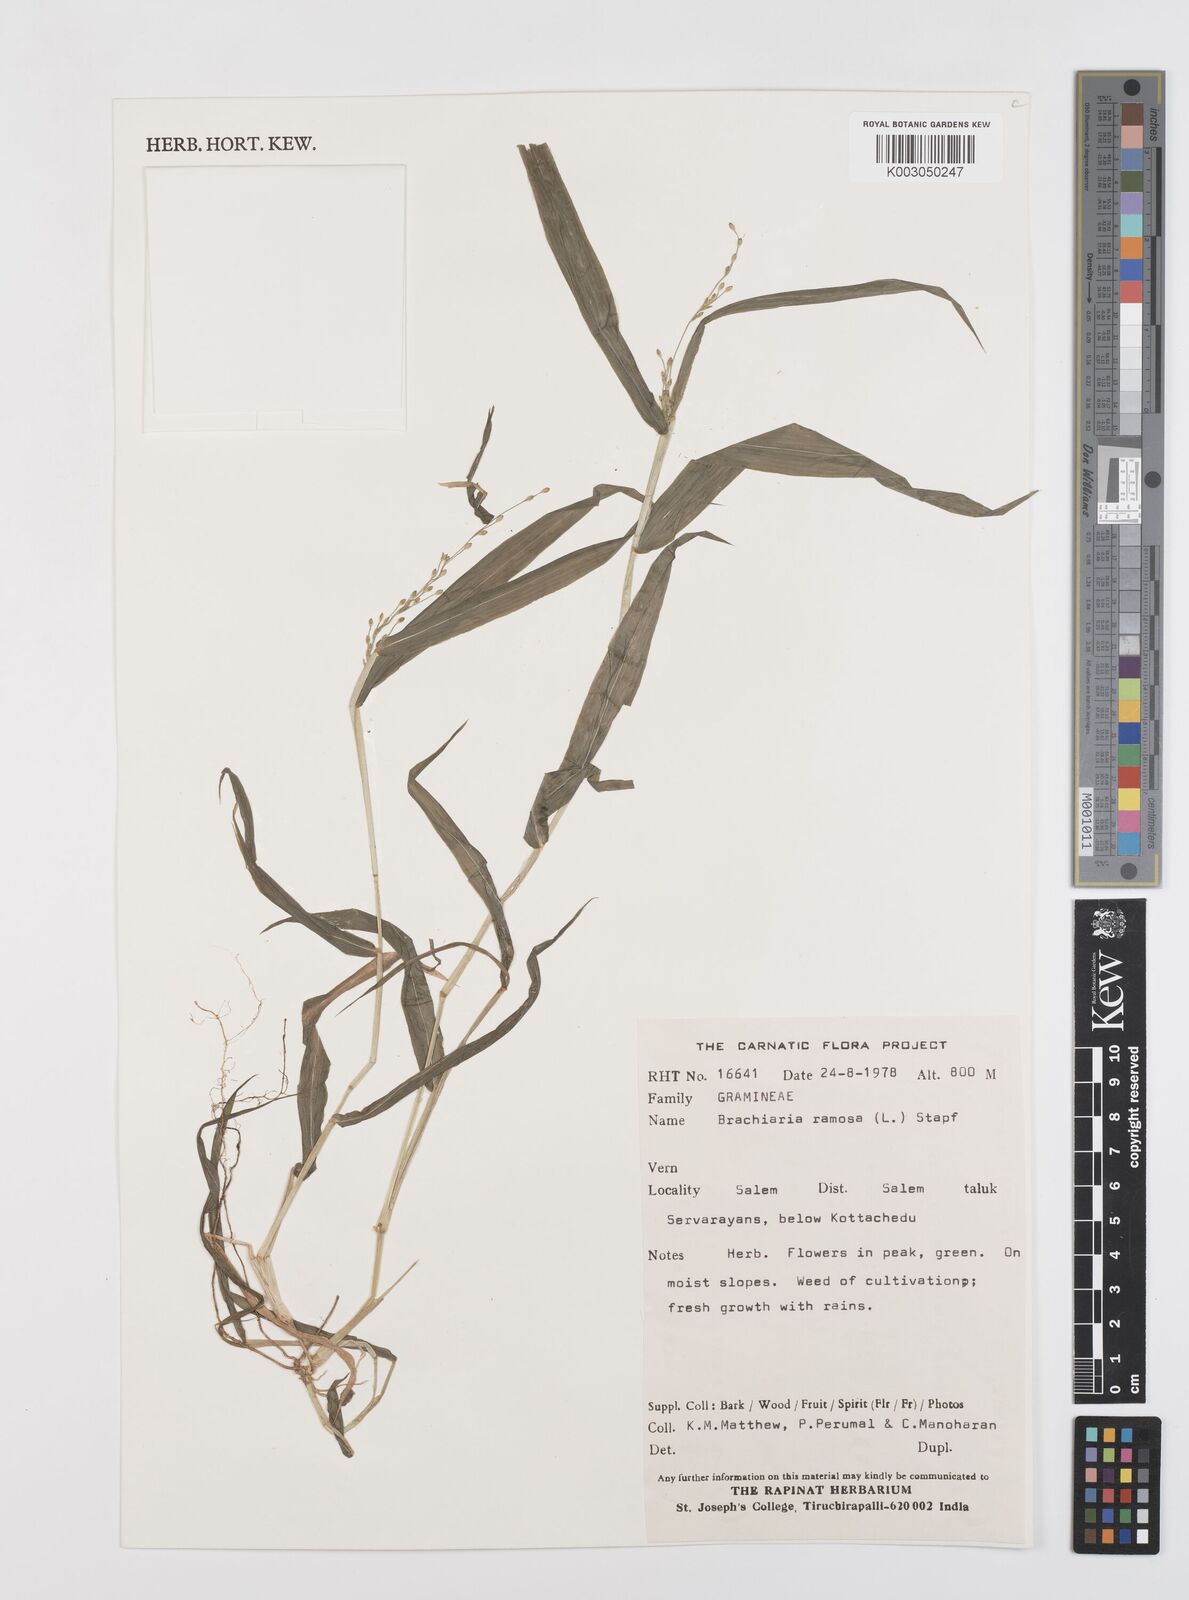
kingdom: Plantae
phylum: Tracheophyta
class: Liliopsida
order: Poales
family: Poaceae
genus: Urochloa
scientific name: Urochloa ramosa
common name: Browntop millet
